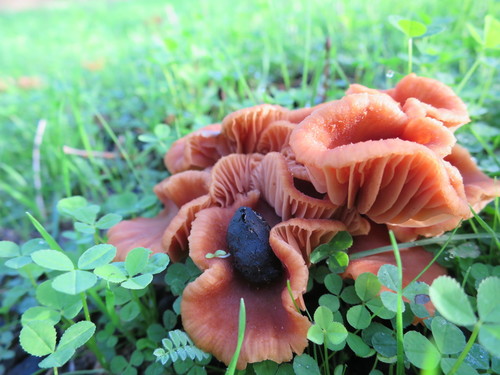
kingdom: Fungi
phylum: Basidiomycota
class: Agaricomycetes
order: Agaricales
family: Hydnangiaceae
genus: Laccaria
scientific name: Laccaria laccata
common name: Deceiver
